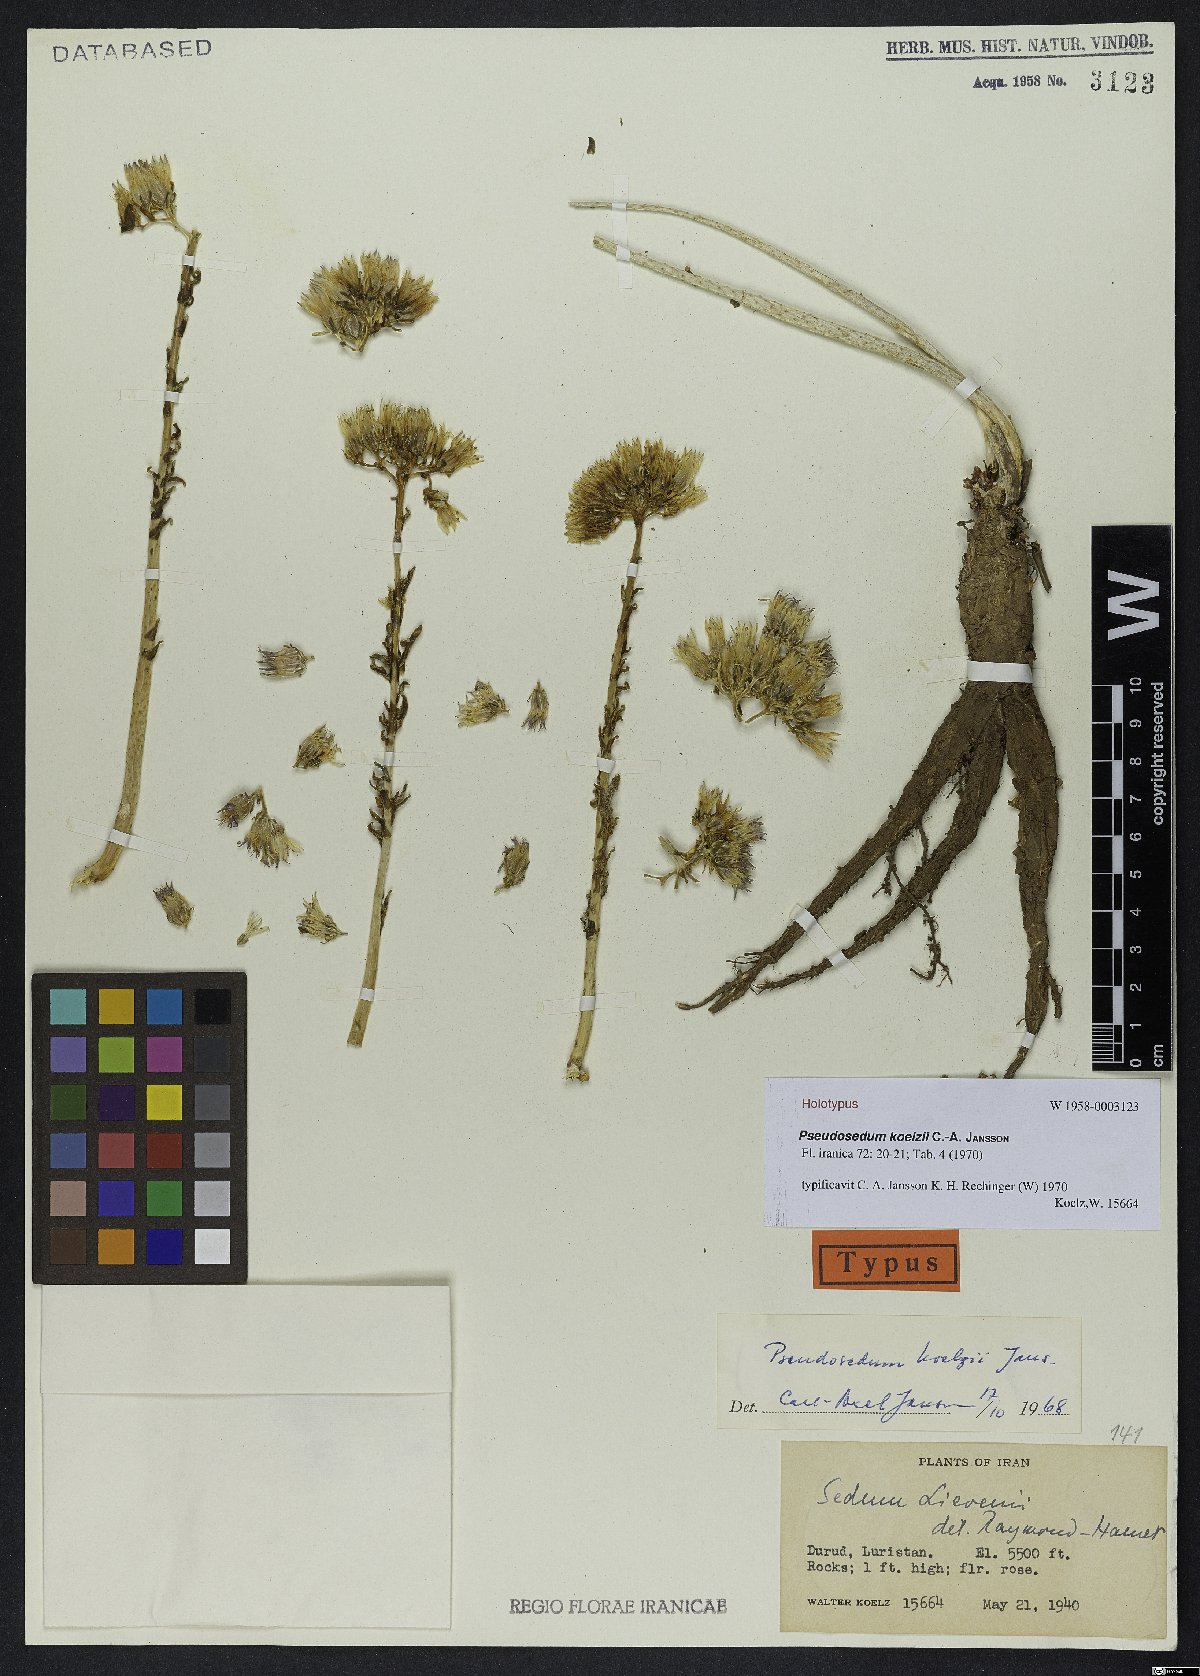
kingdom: Plantae
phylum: Tracheophyta
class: Magnoliopsida
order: Saxifragales
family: Crassulaceae
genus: Pseudosedum
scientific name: Pseudosedum koelzii
